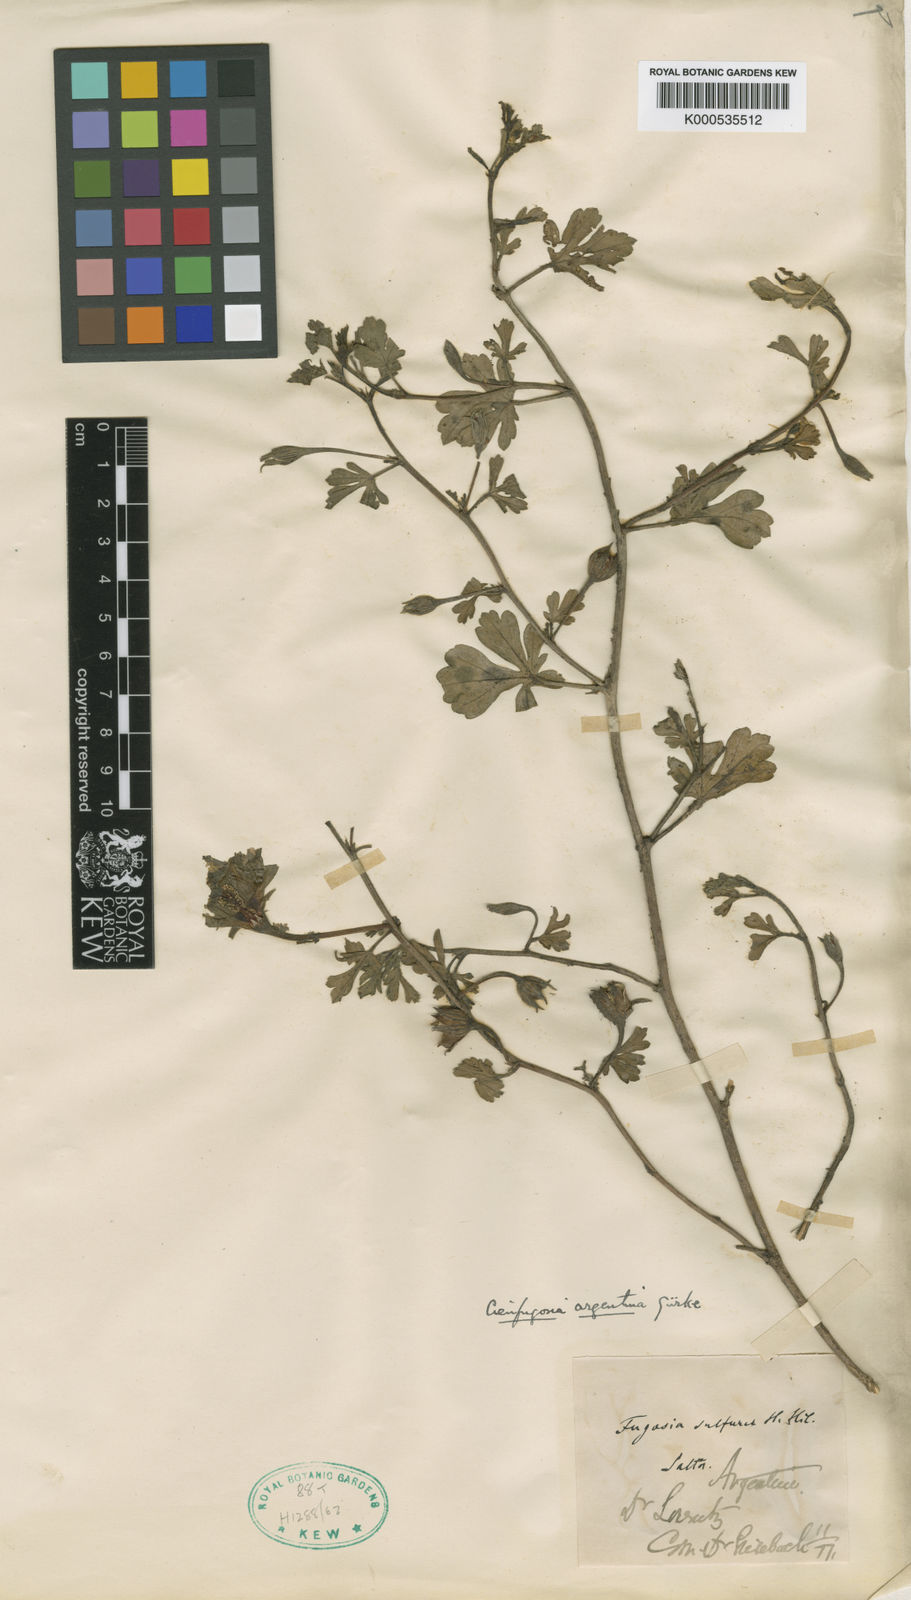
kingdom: Plantae
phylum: Tracheophyta
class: Magnoliopsida
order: Malvales
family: Malvaceae
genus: Cienfuegosia
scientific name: Cienfuegosia
